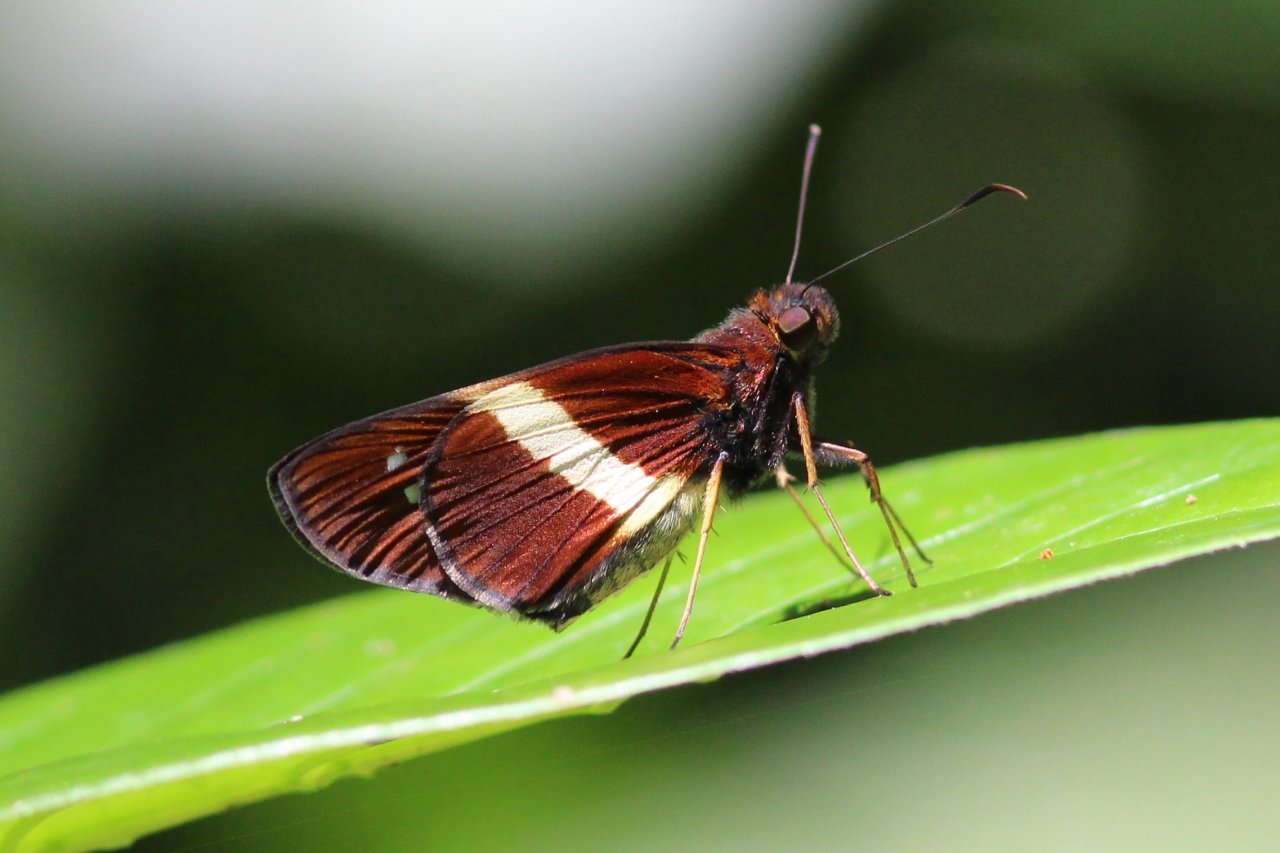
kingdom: Animalia
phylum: Arthropoda
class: Insecta
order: Lepidoptera
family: Hesperiidae
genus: Dubiella
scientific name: Dubiella fiscella
